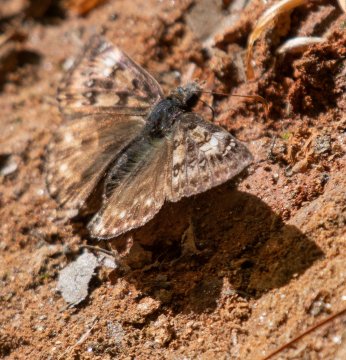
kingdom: Animalia
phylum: Arthropoda
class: Insecta
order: Lepidoptera
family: Hesperiidae
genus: Gesta
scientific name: Gesta
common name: Horace's Duskywing
